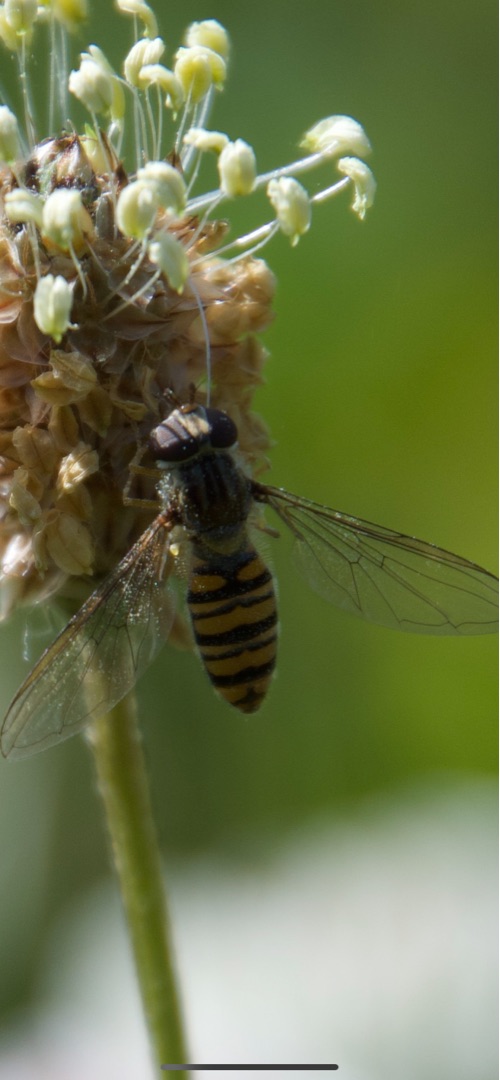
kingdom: Animalia
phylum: Arthropoda
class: Insecta
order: Diptera
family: Syrphidae
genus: Episyrphus
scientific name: Episyrphus balteatus
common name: Dobbeltbåndet svirreflue
